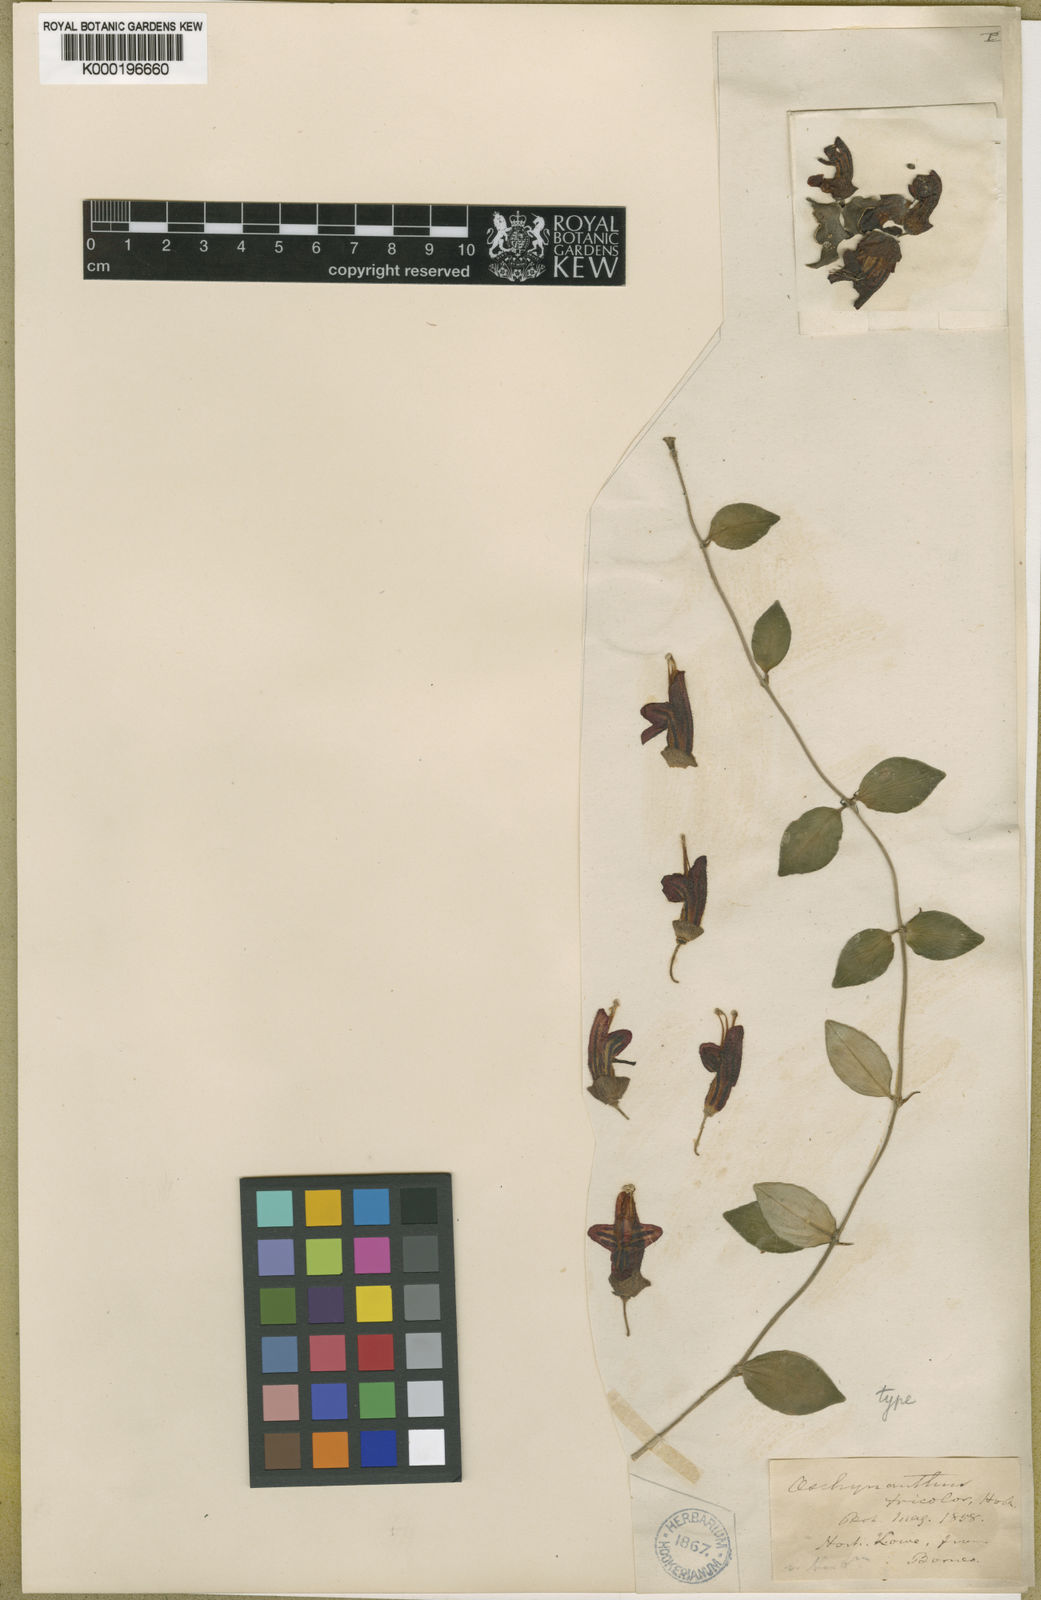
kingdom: Plantae
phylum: Tracheophyta
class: Magnoliopsida
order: Lamiales
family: Gesneriaceae
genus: Aeschynanthus
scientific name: Aeschynanthus tricolor
